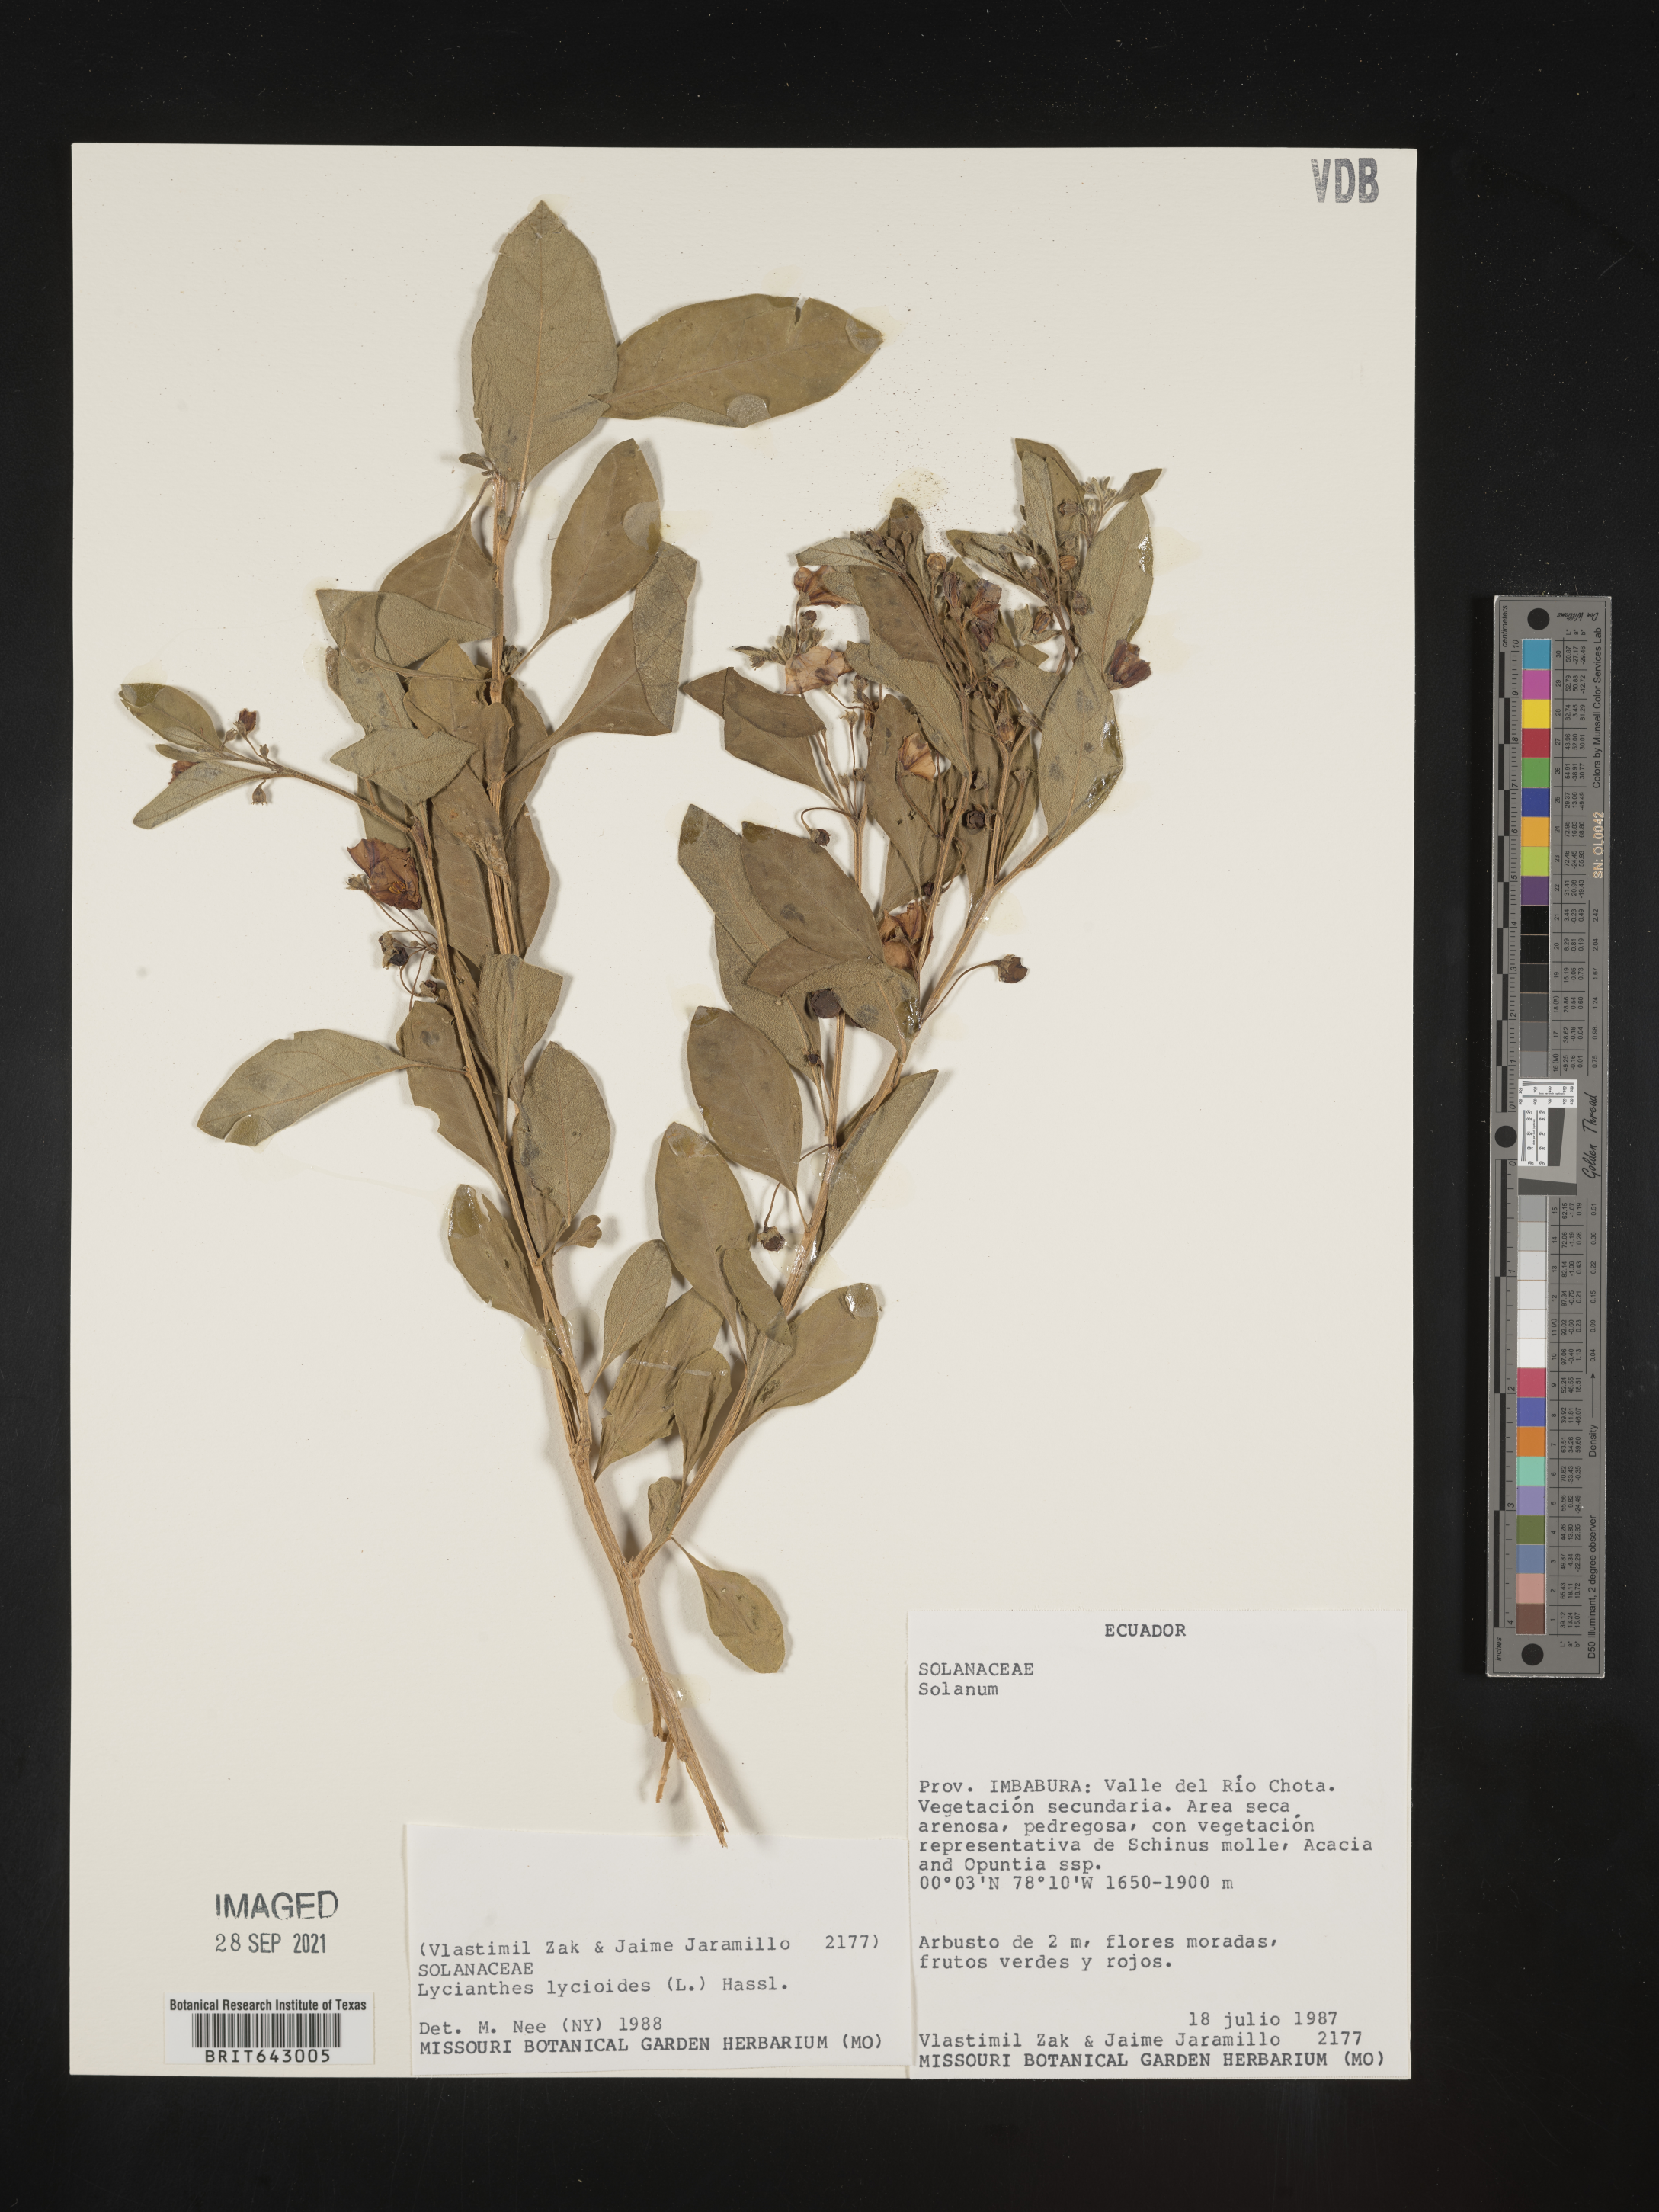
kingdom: Plantae
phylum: Tracheophyta
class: Magnoliopsida
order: Solanales
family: Solanaceae
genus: Lycianthes
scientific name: Lycianthes
